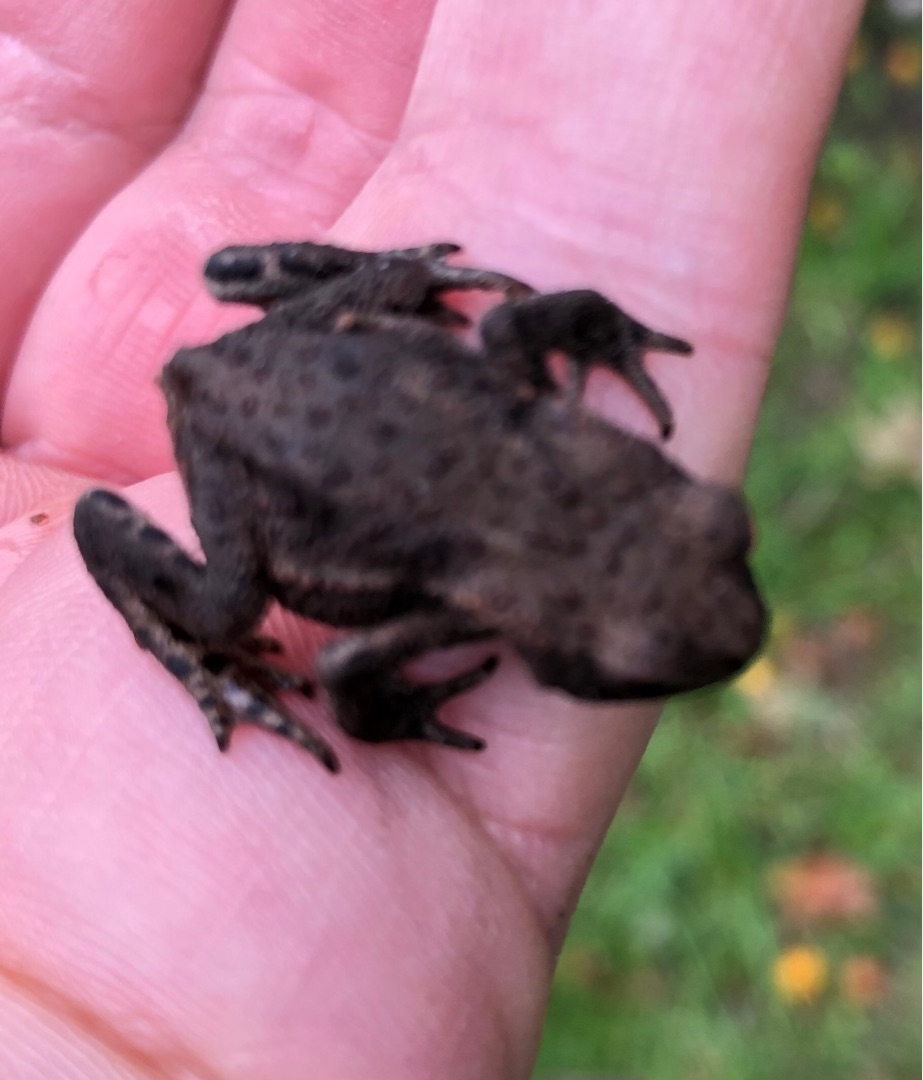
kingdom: Animalia
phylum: Chordata
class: Amphibia
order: Anura
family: Bufonidae
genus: Bufo
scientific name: Bufo bufo
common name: Skrubtudse
